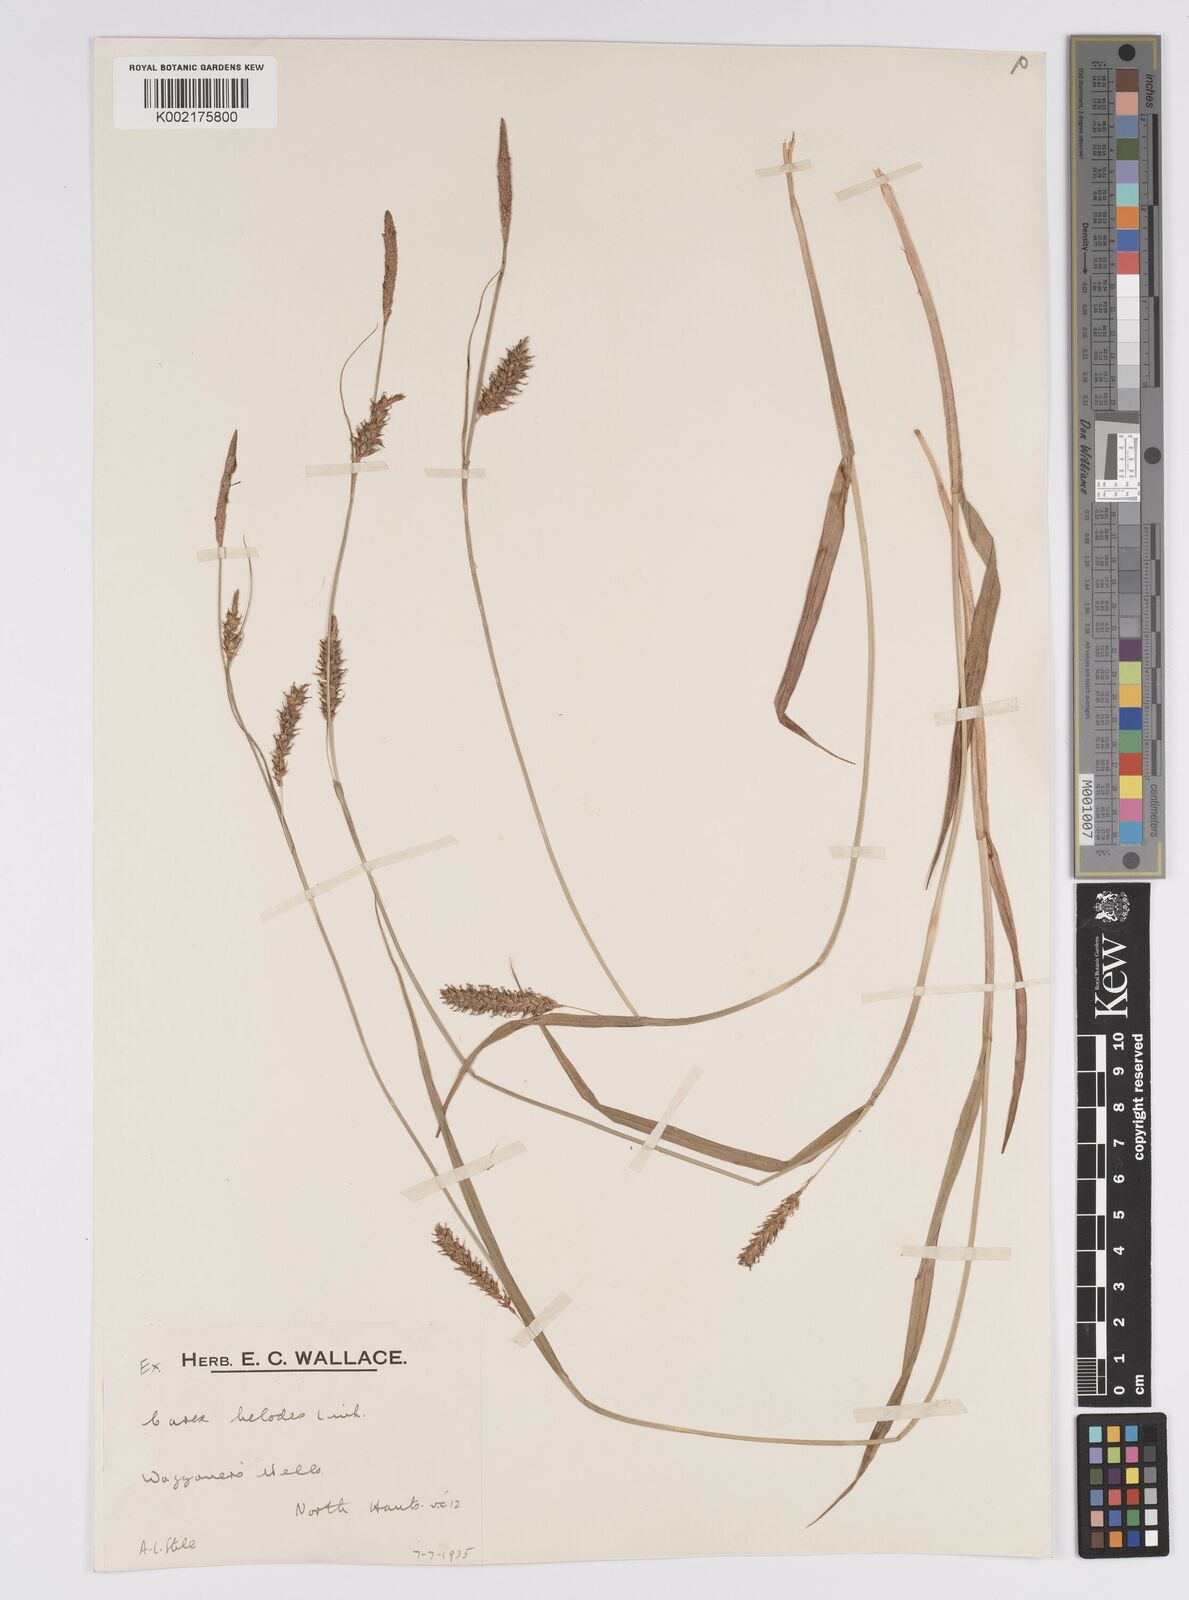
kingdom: Plantae
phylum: Tracheophyta
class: Liliopsida
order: Poales
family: Cyperaceae
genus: Carex
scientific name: Carex laevigata
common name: Smooth-stalked sedge
